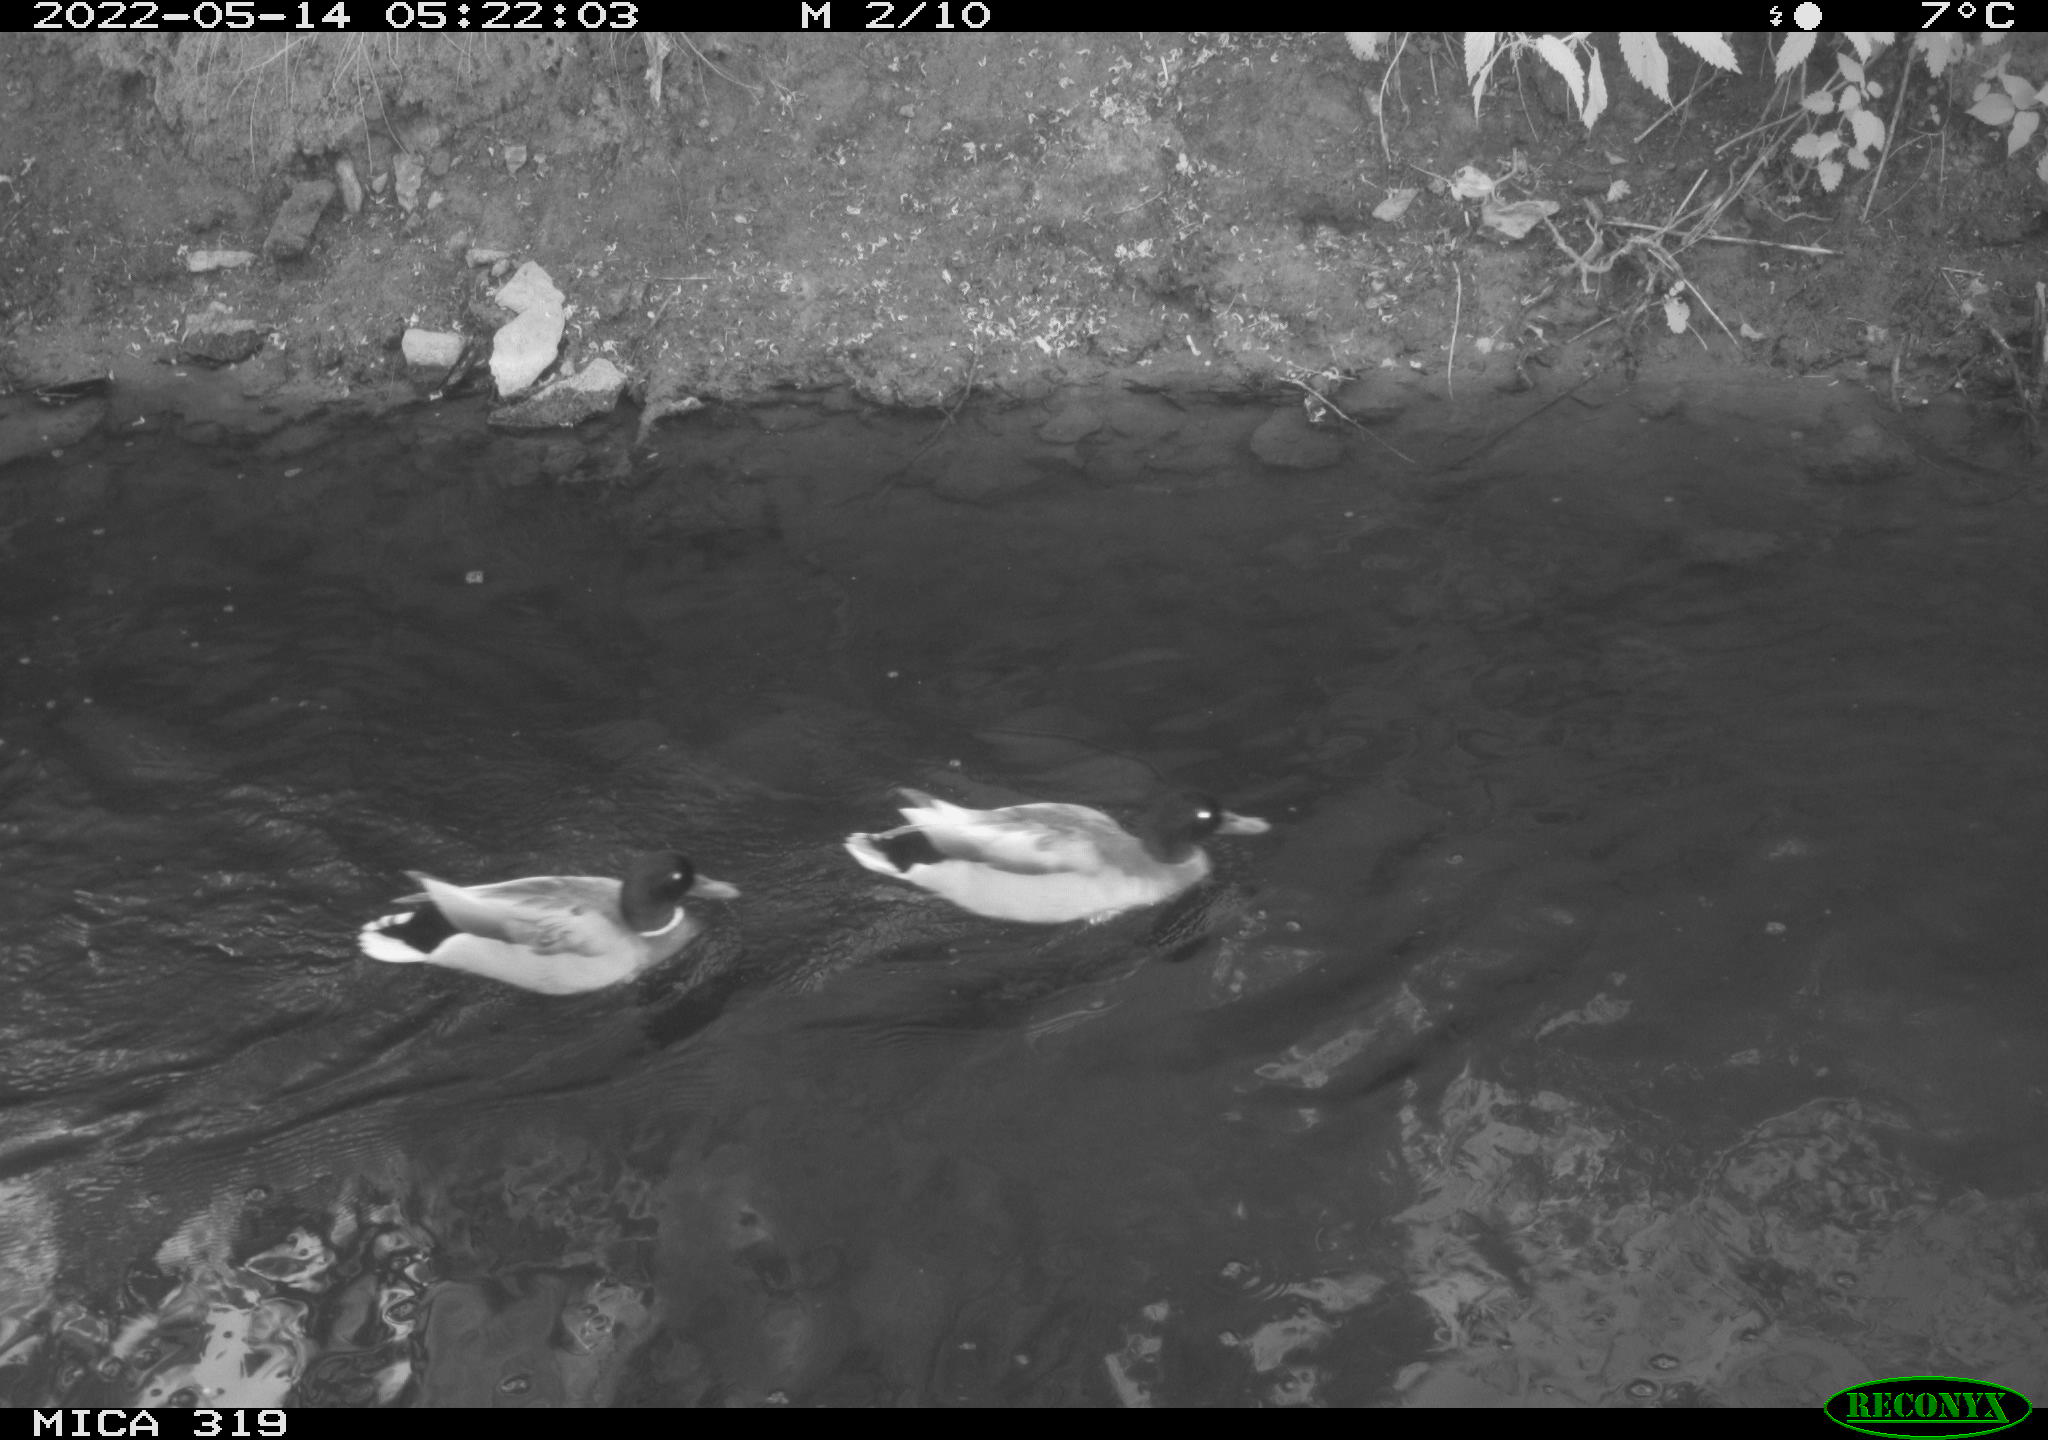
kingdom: Animalia
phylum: Chordata
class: Aves
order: Anseriformes
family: Anatidae
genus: Anas
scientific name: Anas
